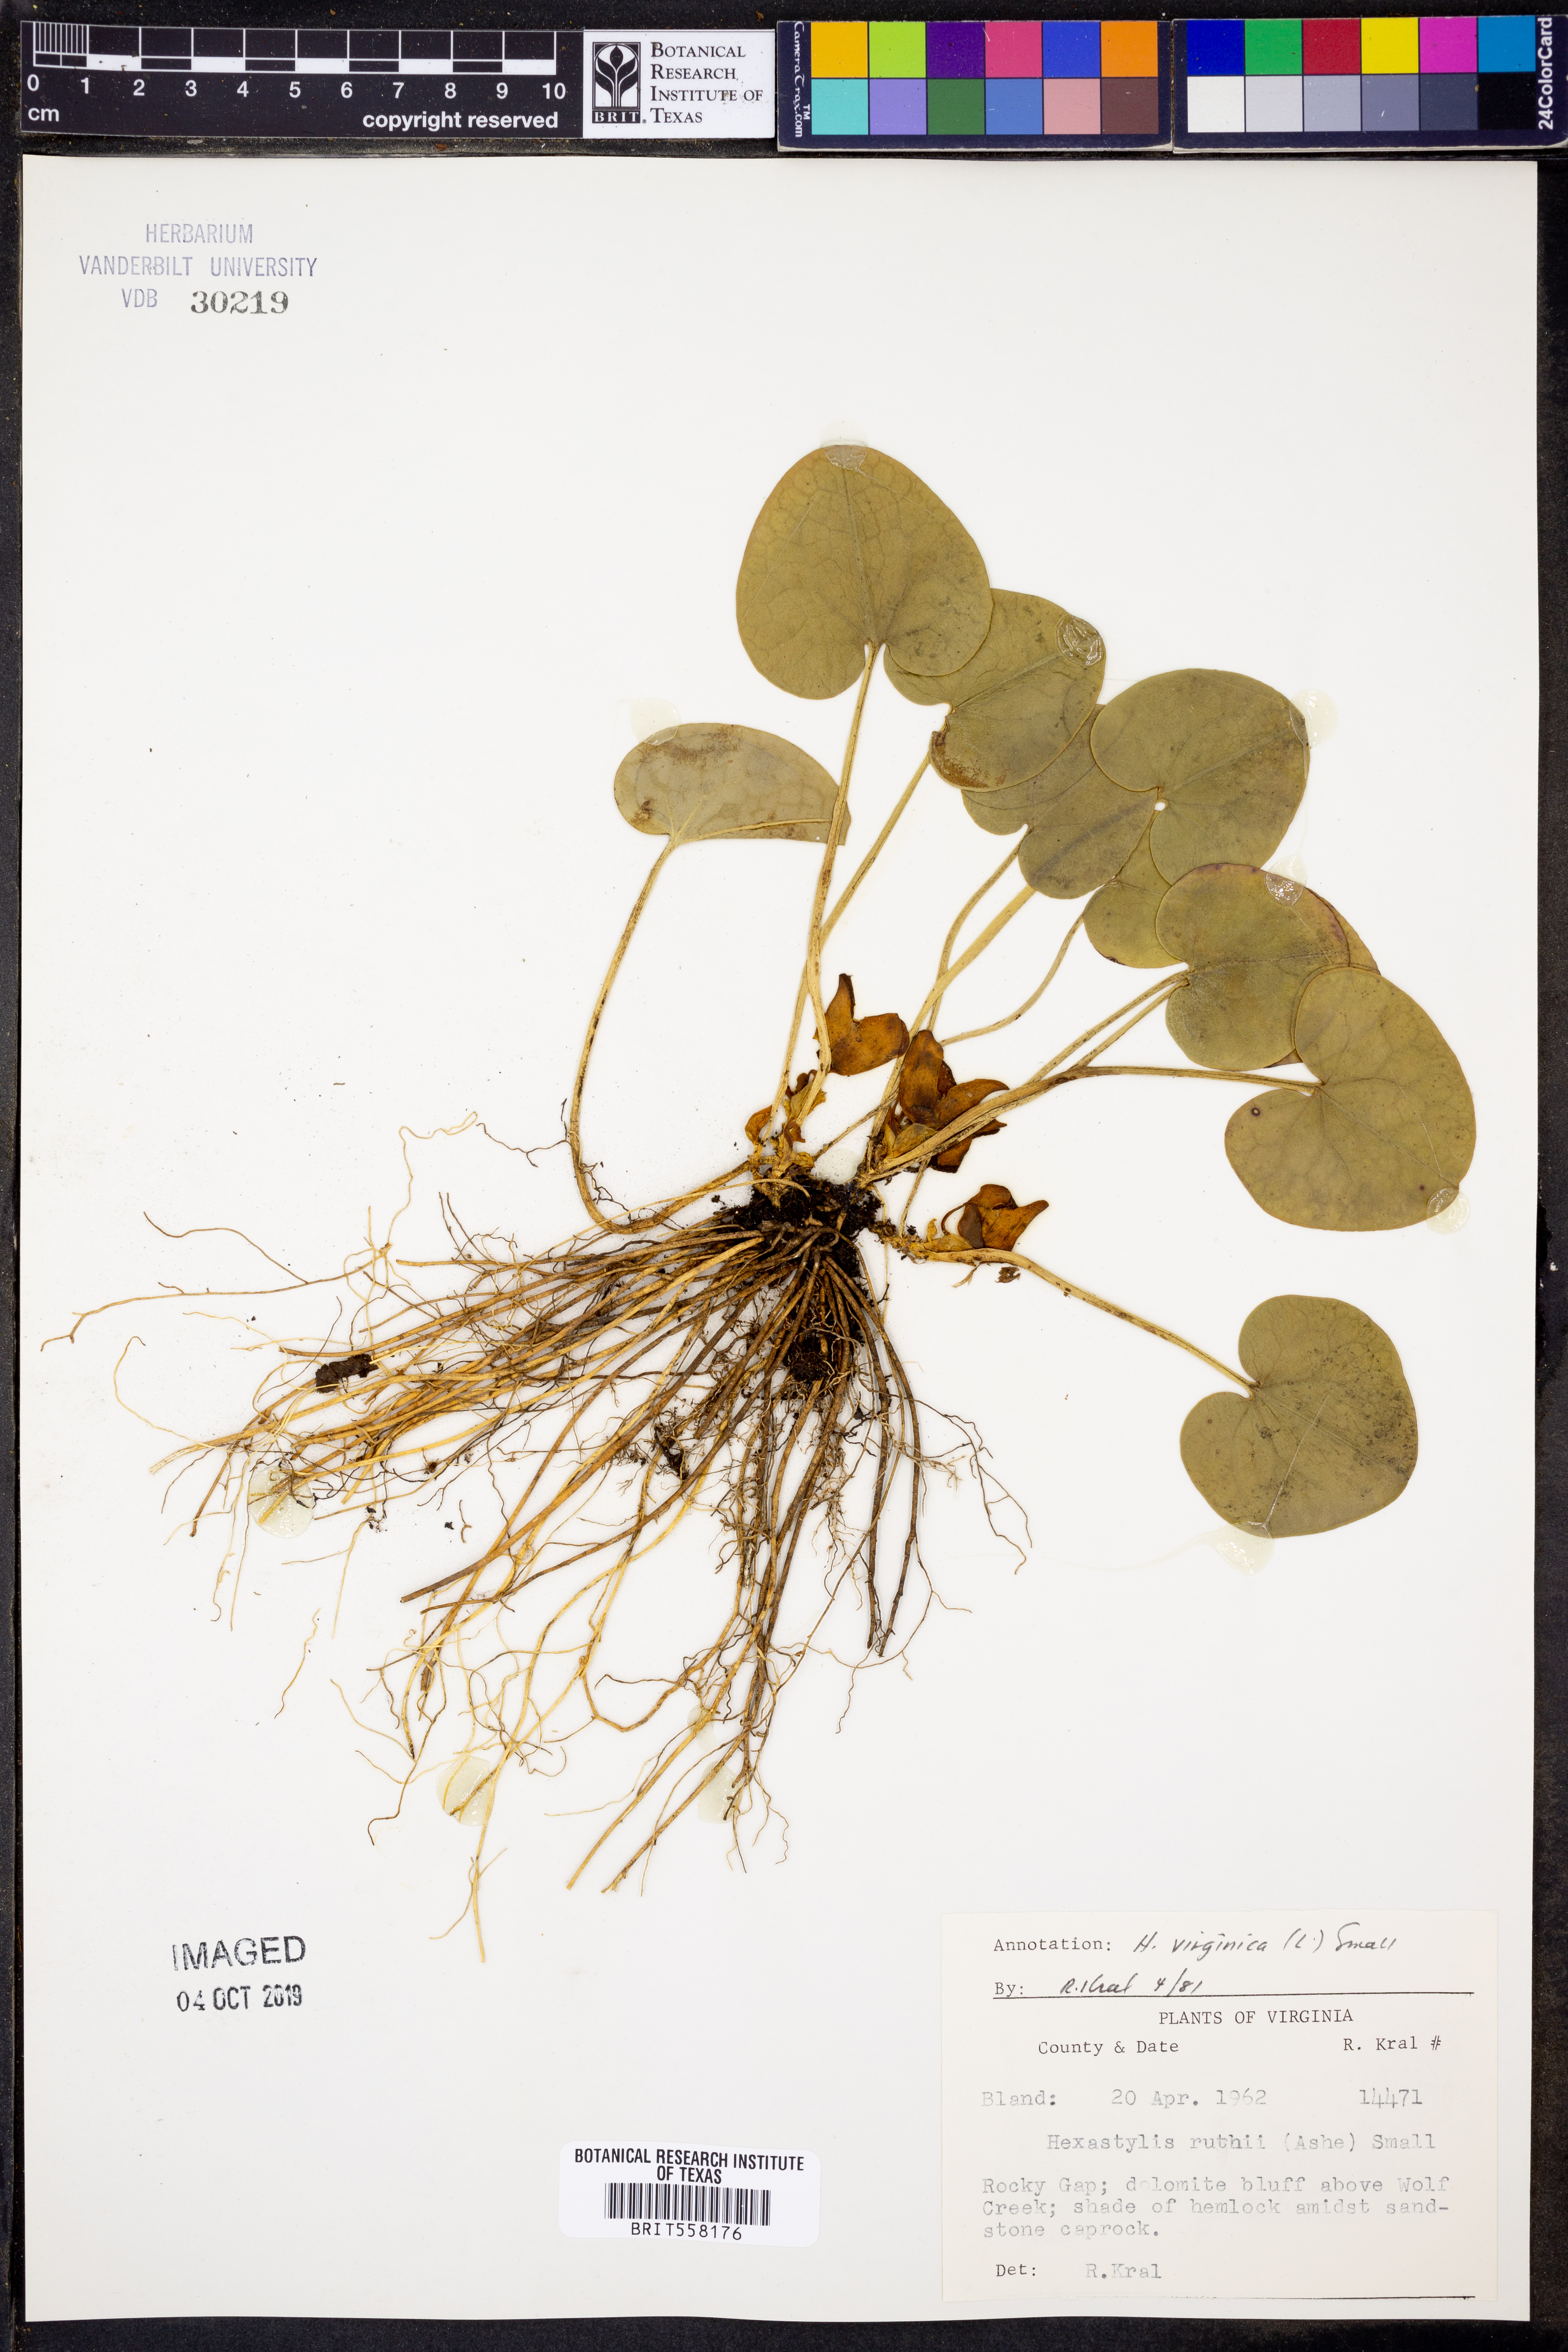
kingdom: Plantae
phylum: Tracheophyta
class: Magnoliopsida
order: Piperales
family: Aristolochiaceae
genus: Hexastylis
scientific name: Hexastylis virginica
